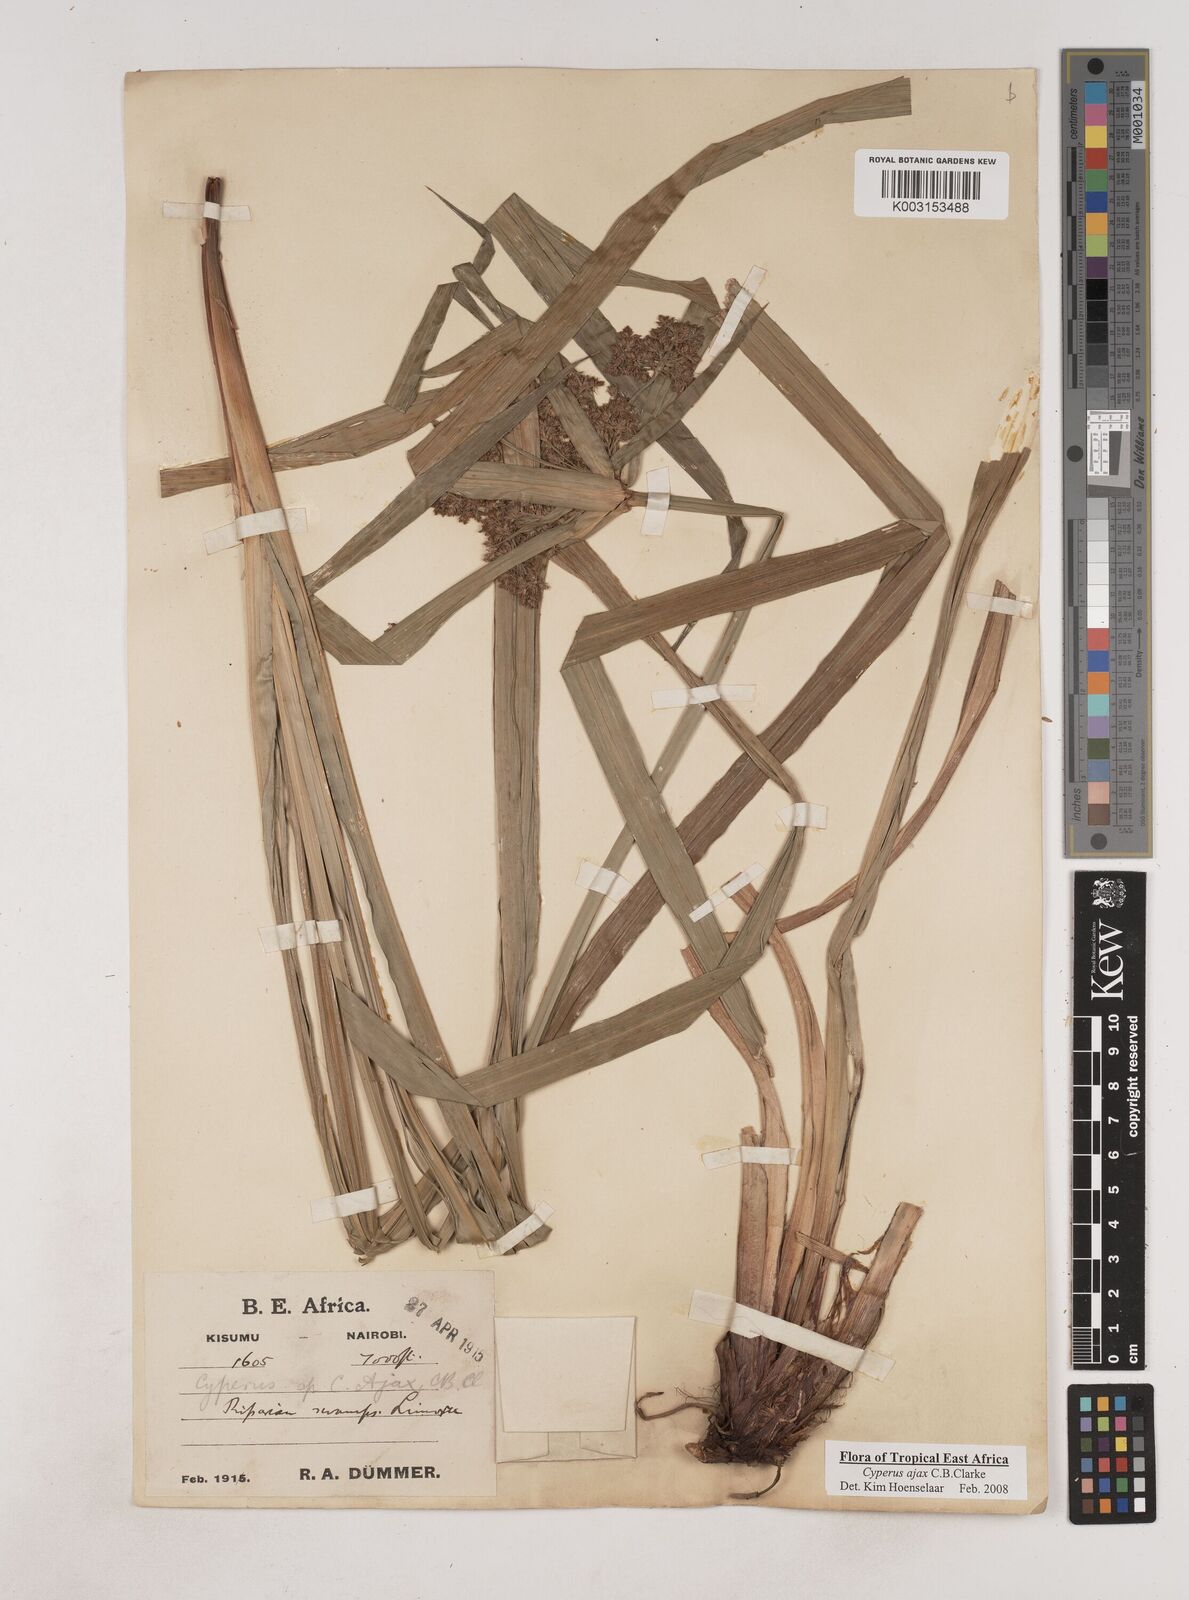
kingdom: Plantae
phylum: Tracheophyta
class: Liliopsida
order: Poales
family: Cyperaceae
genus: Cyperus
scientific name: Cyperus ajax
